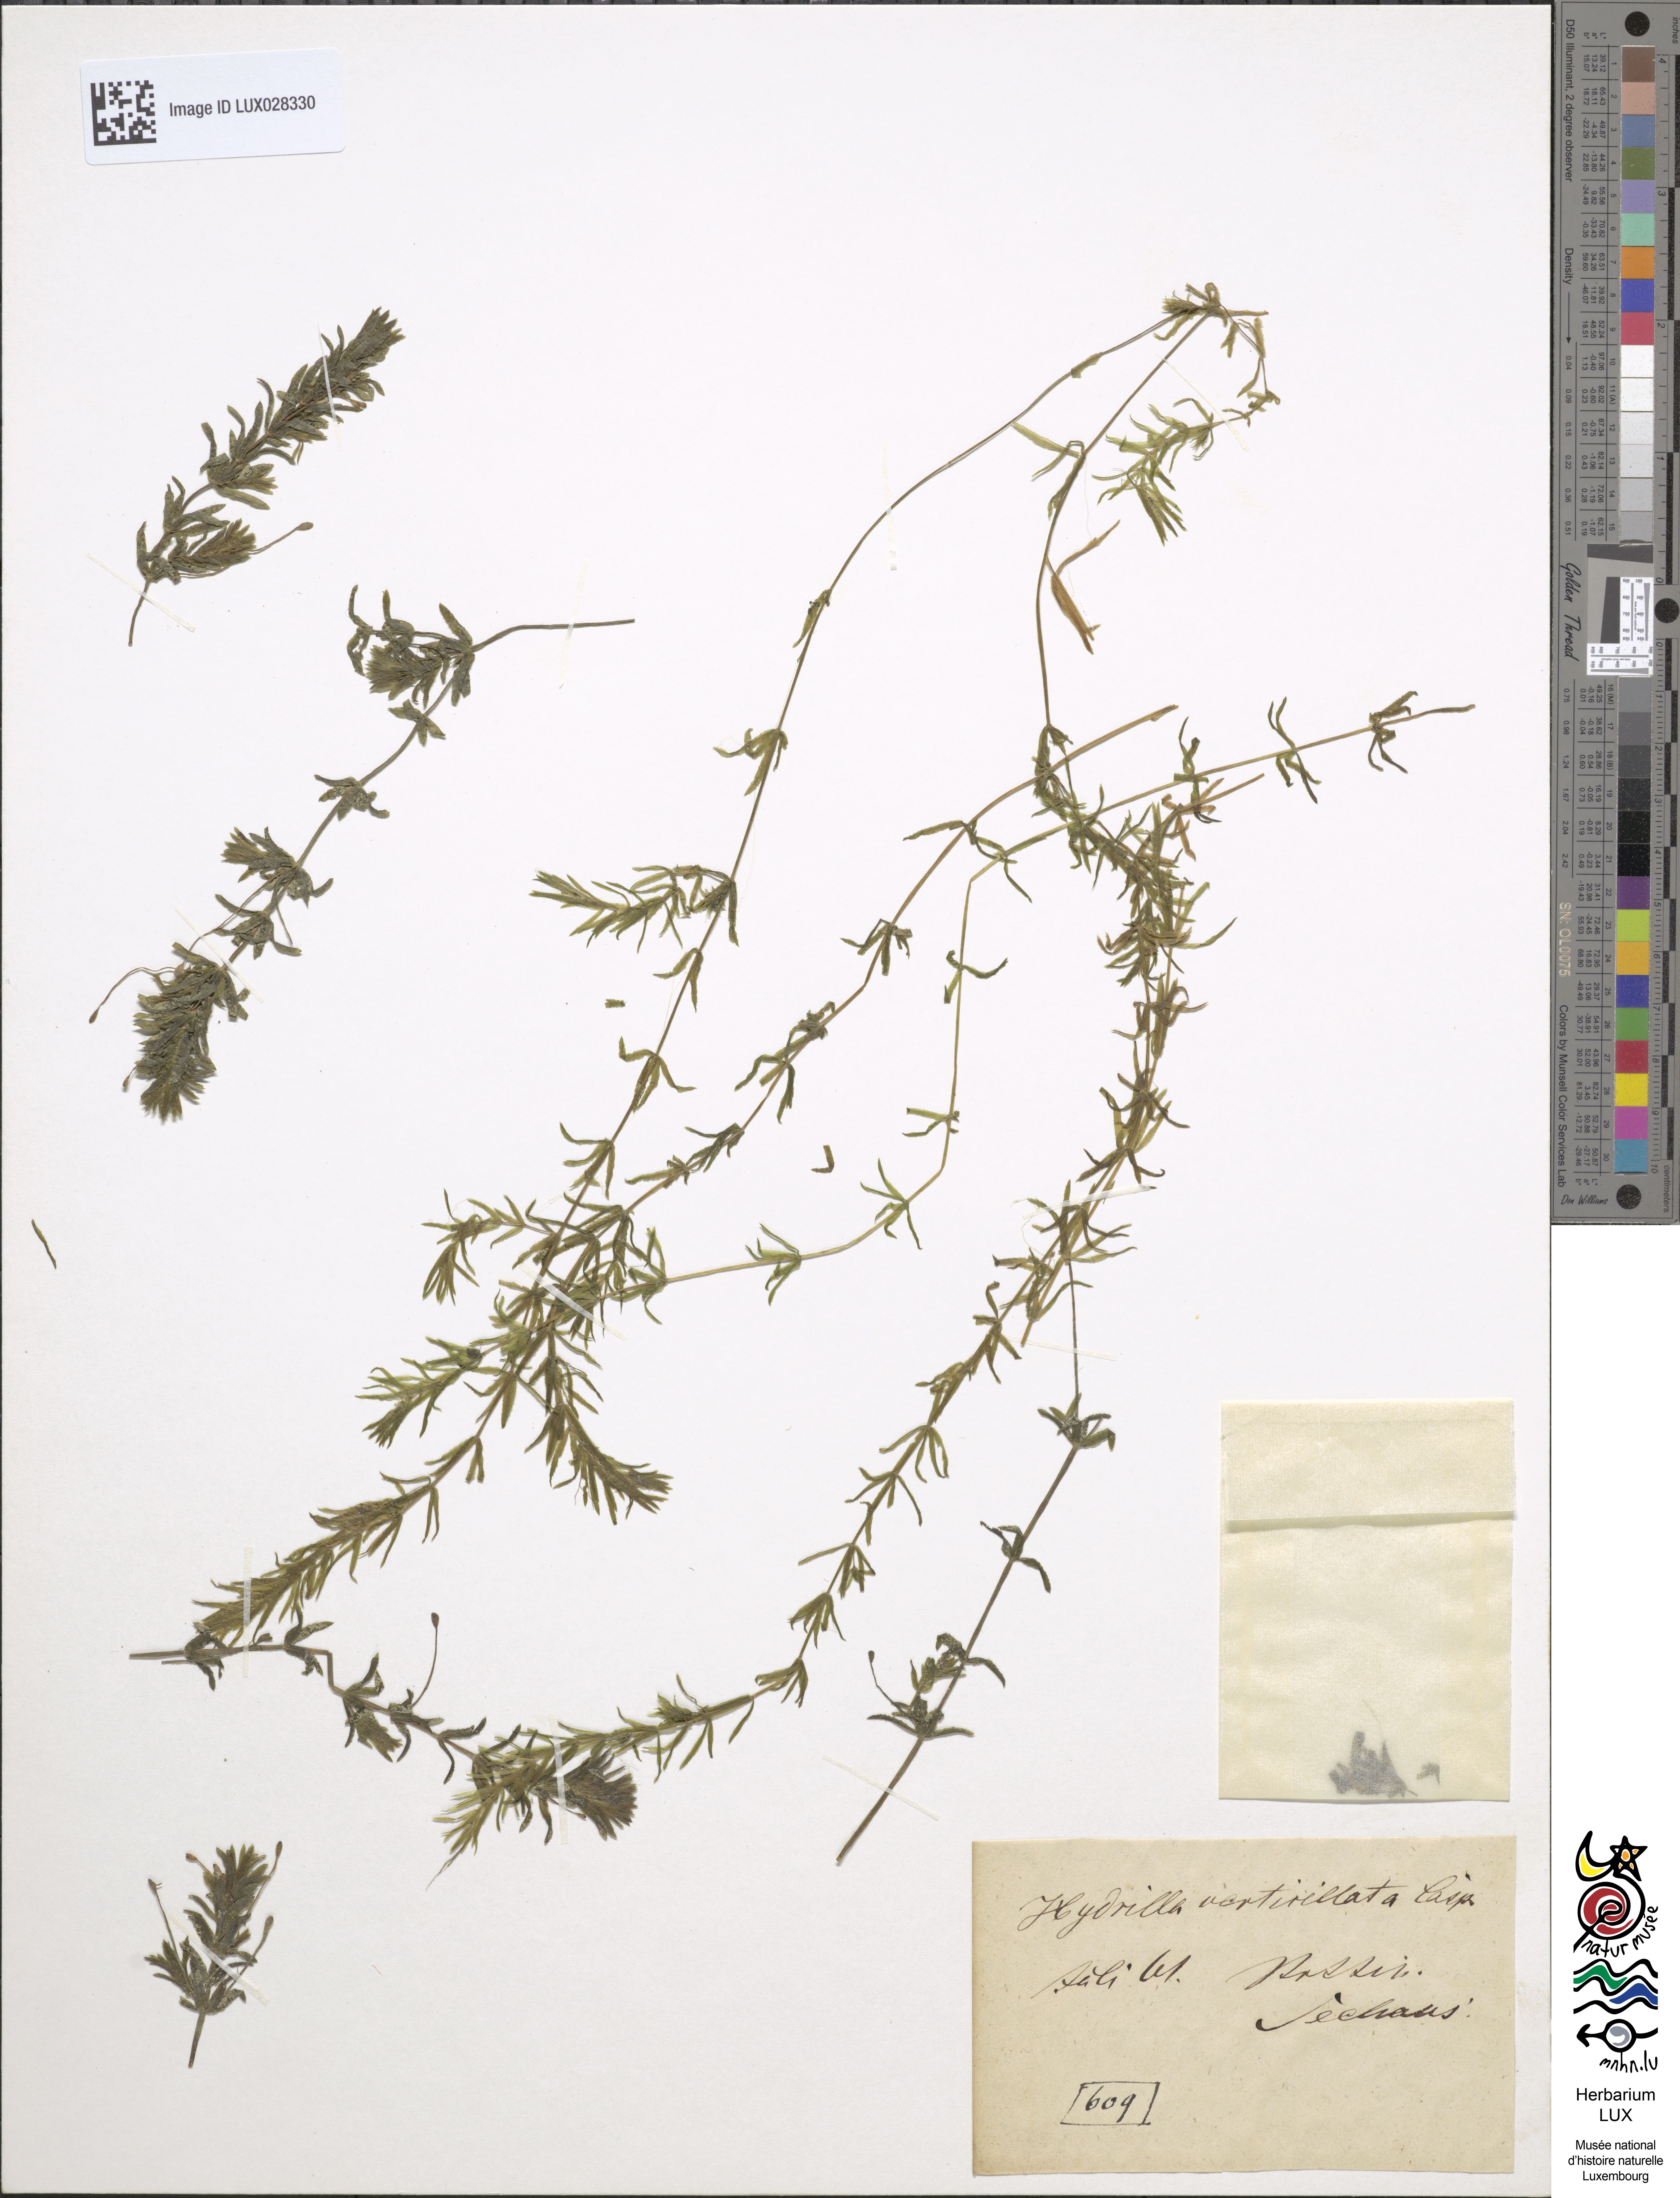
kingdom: Plantae
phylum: Tracheophyta
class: Liliopsida
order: Alismatales
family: Hydrocharitaceae
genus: Hydrilla
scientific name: Hydrilla verticillata
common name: Florida-elodea
